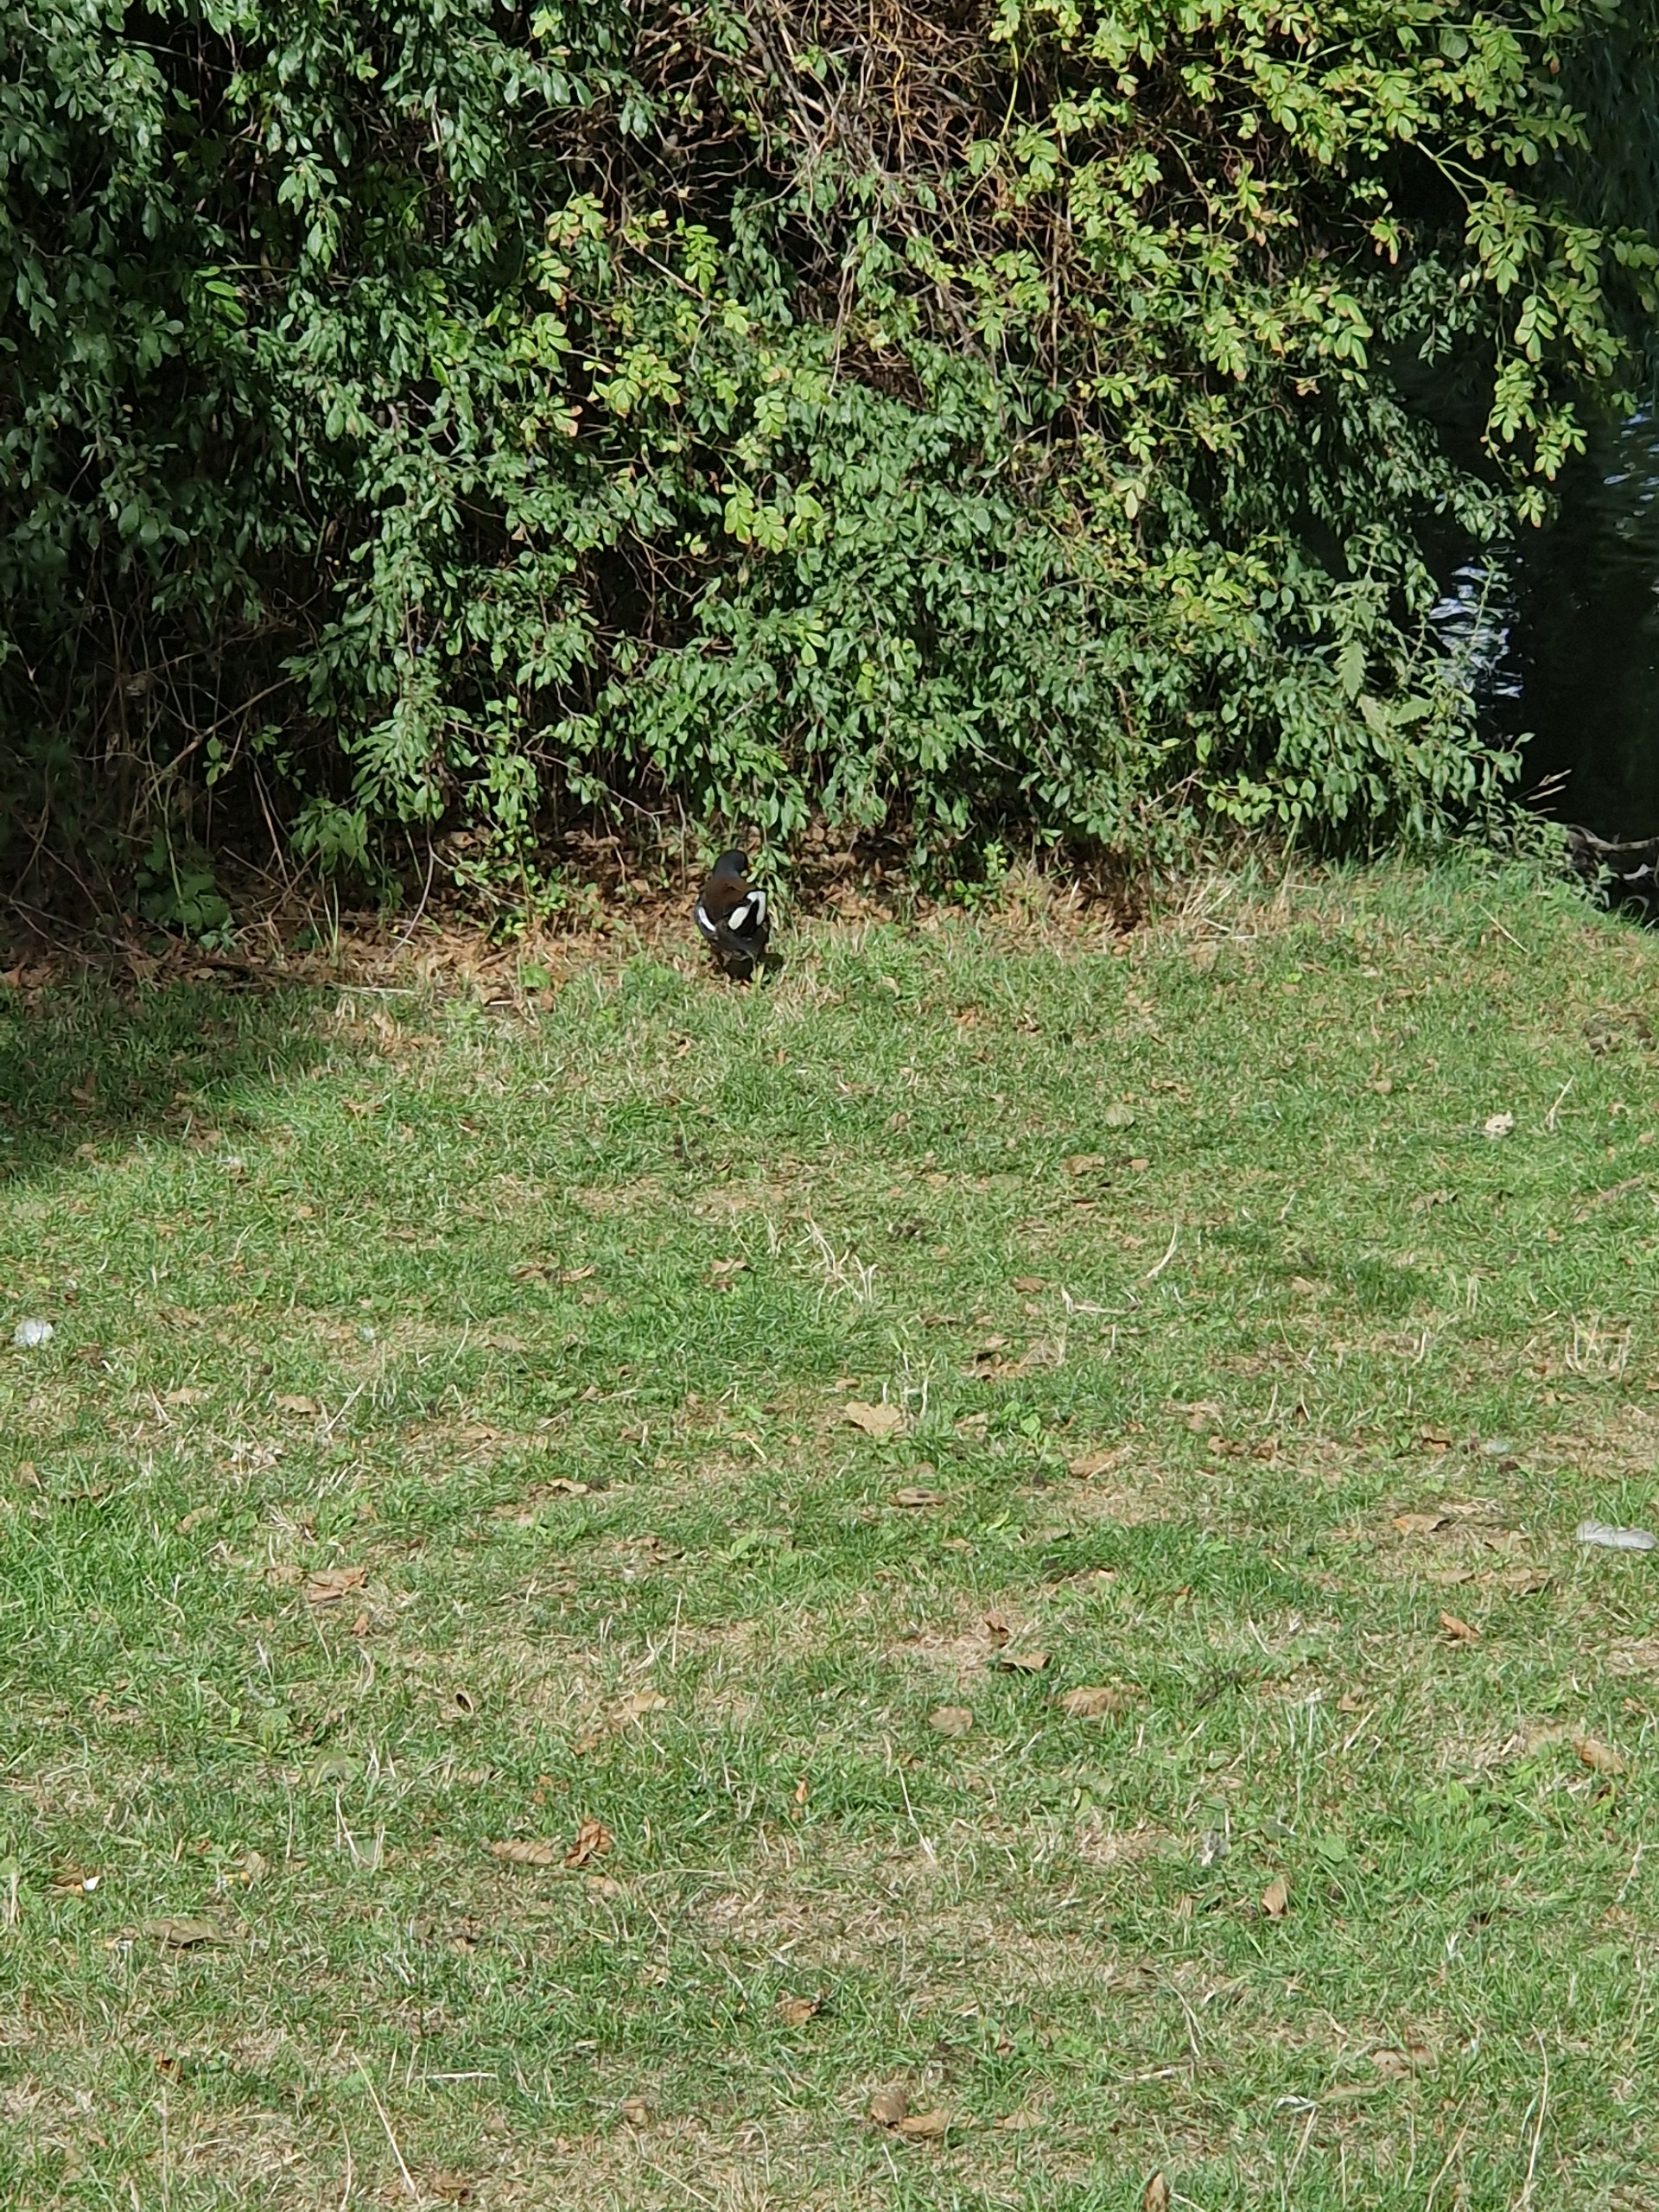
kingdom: Animalia
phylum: Chordata
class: Aves
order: Gruiformes
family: Rallidae
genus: Gallinula
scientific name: Gallinula chloropus
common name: Grønbenet rørhøne
